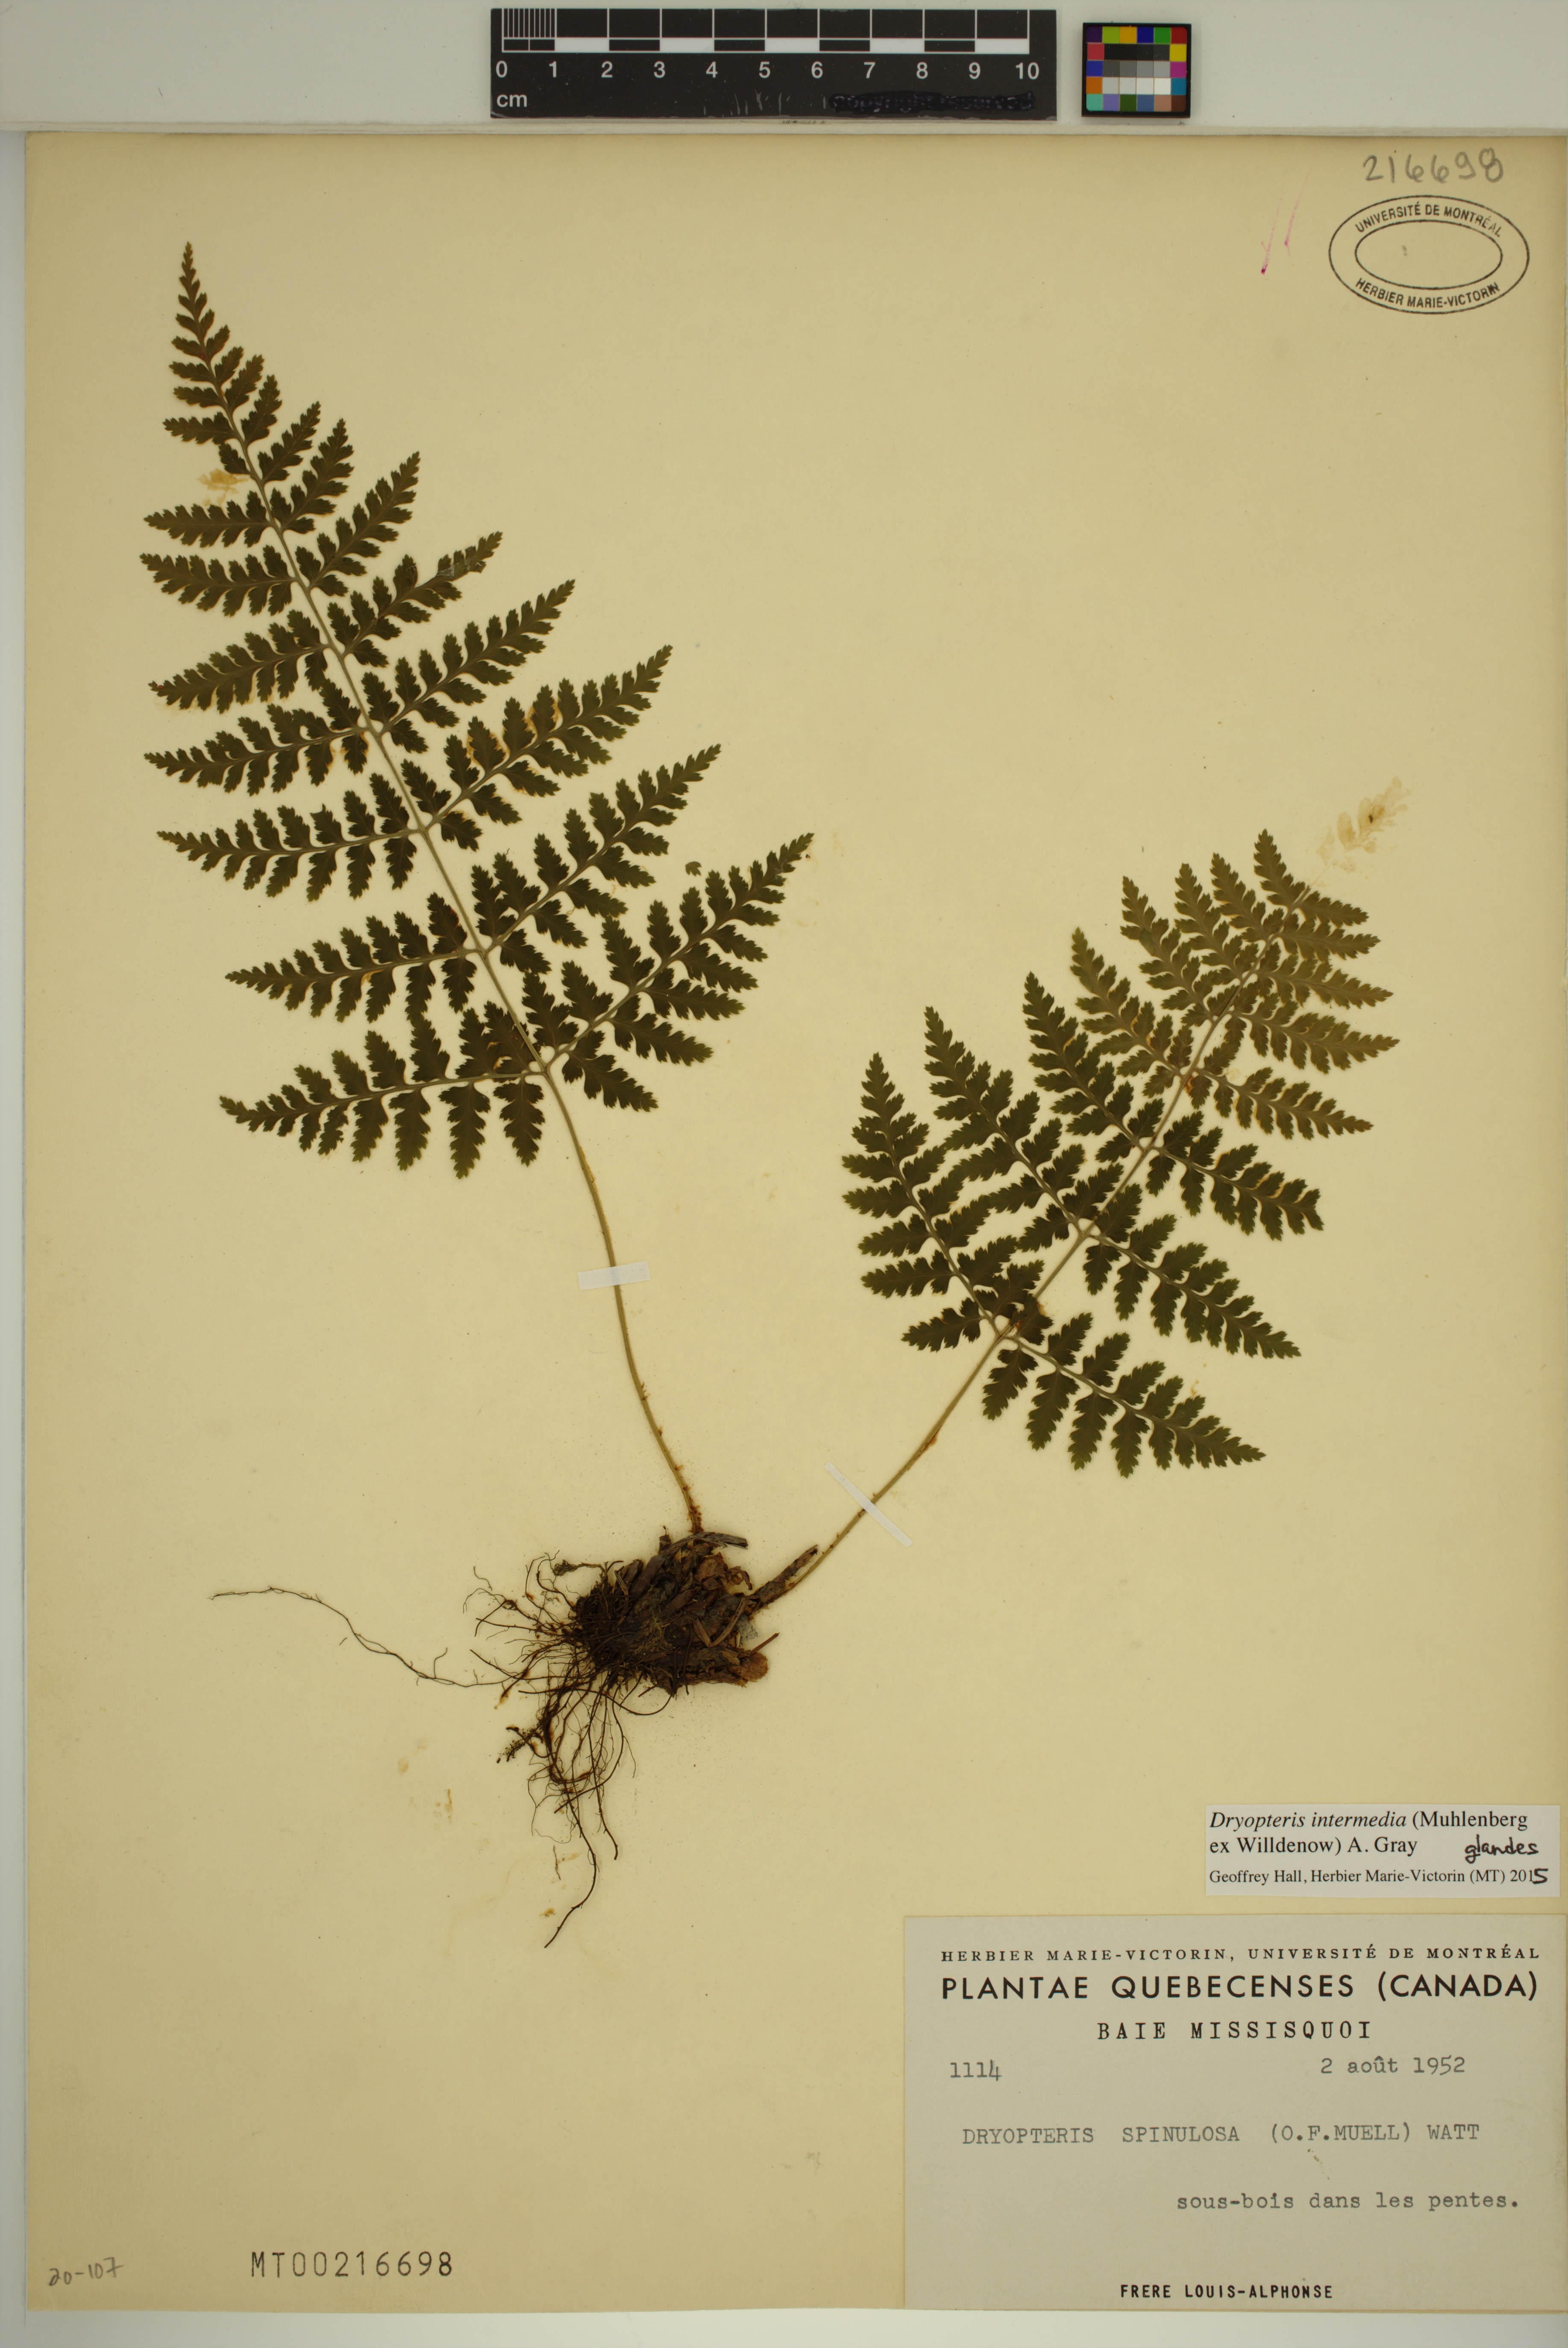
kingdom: Plantae
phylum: Tracheophyta
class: Polypodiopsida
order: Polypodiales
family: Dryopteridaceae
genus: Dryopteris
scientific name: Dryopteris intermedia
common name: Evergreen wood fern
